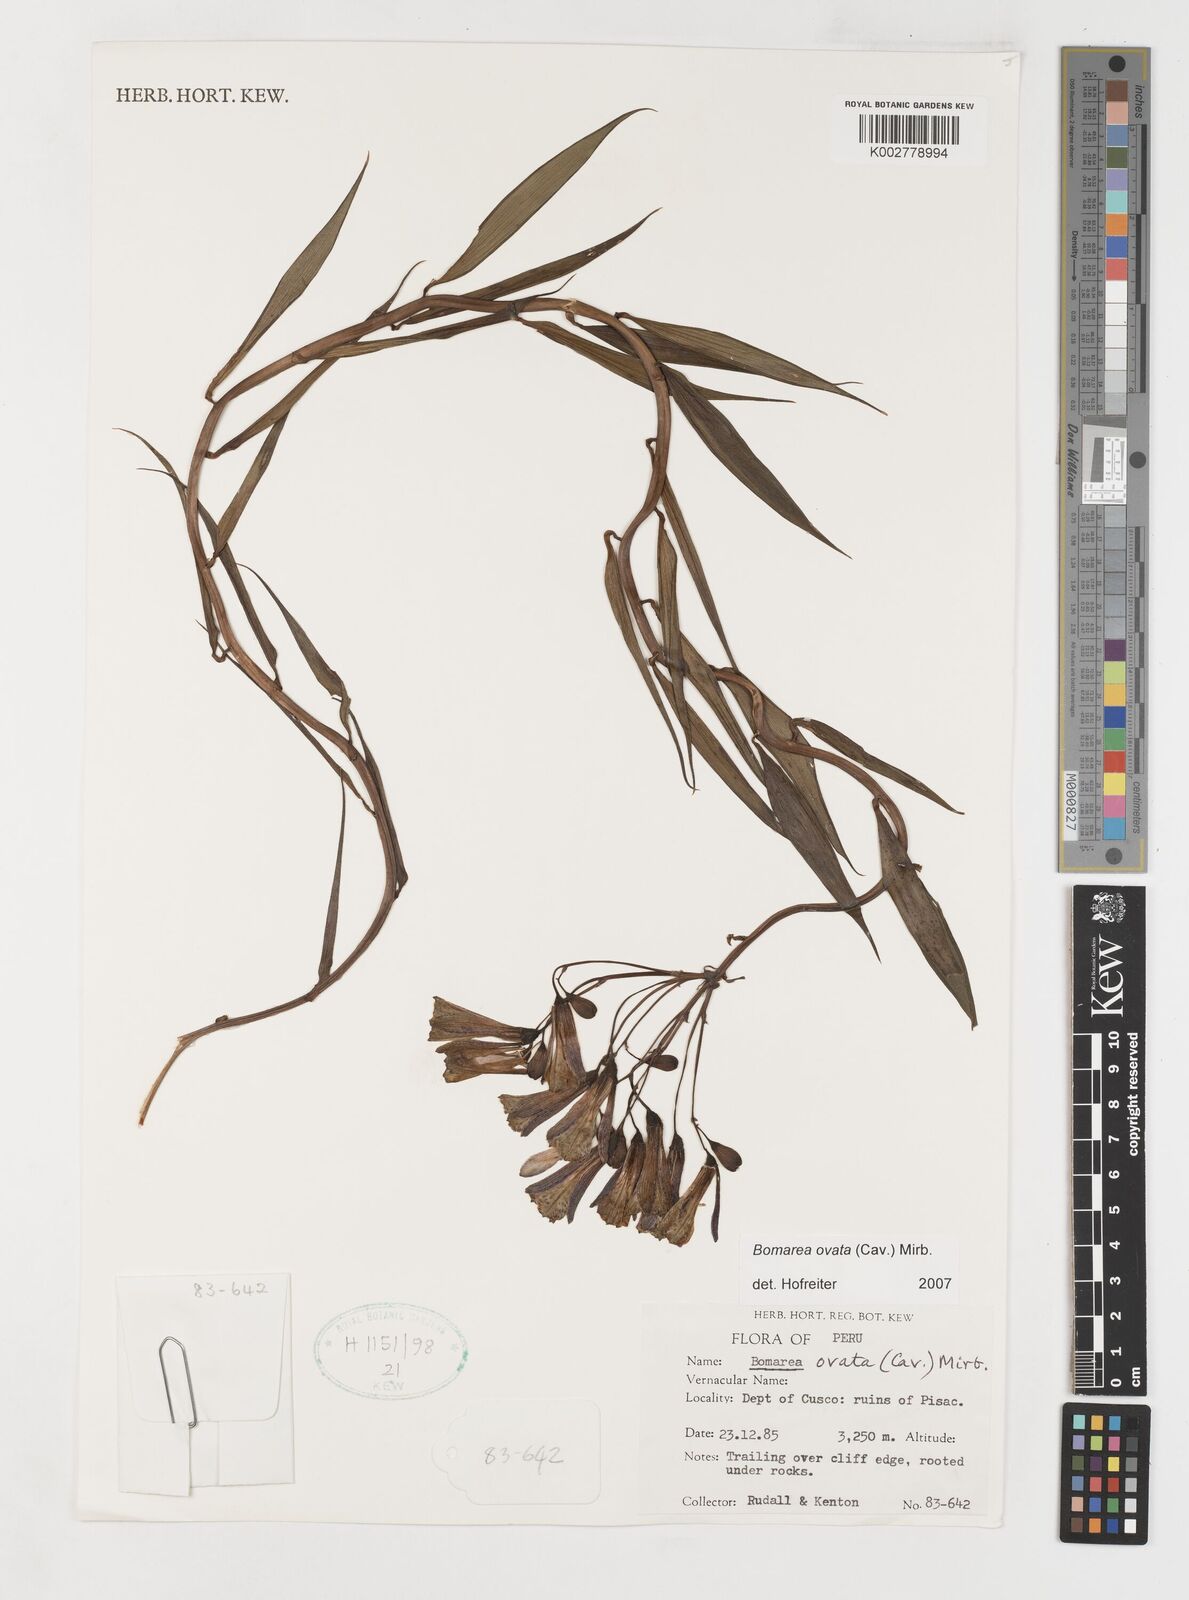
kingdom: Plantae
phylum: Tracheophyta
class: Liliopsida
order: Liliales
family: Alstroemeriaceae
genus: Bomarea
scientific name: Bomarea ovata
